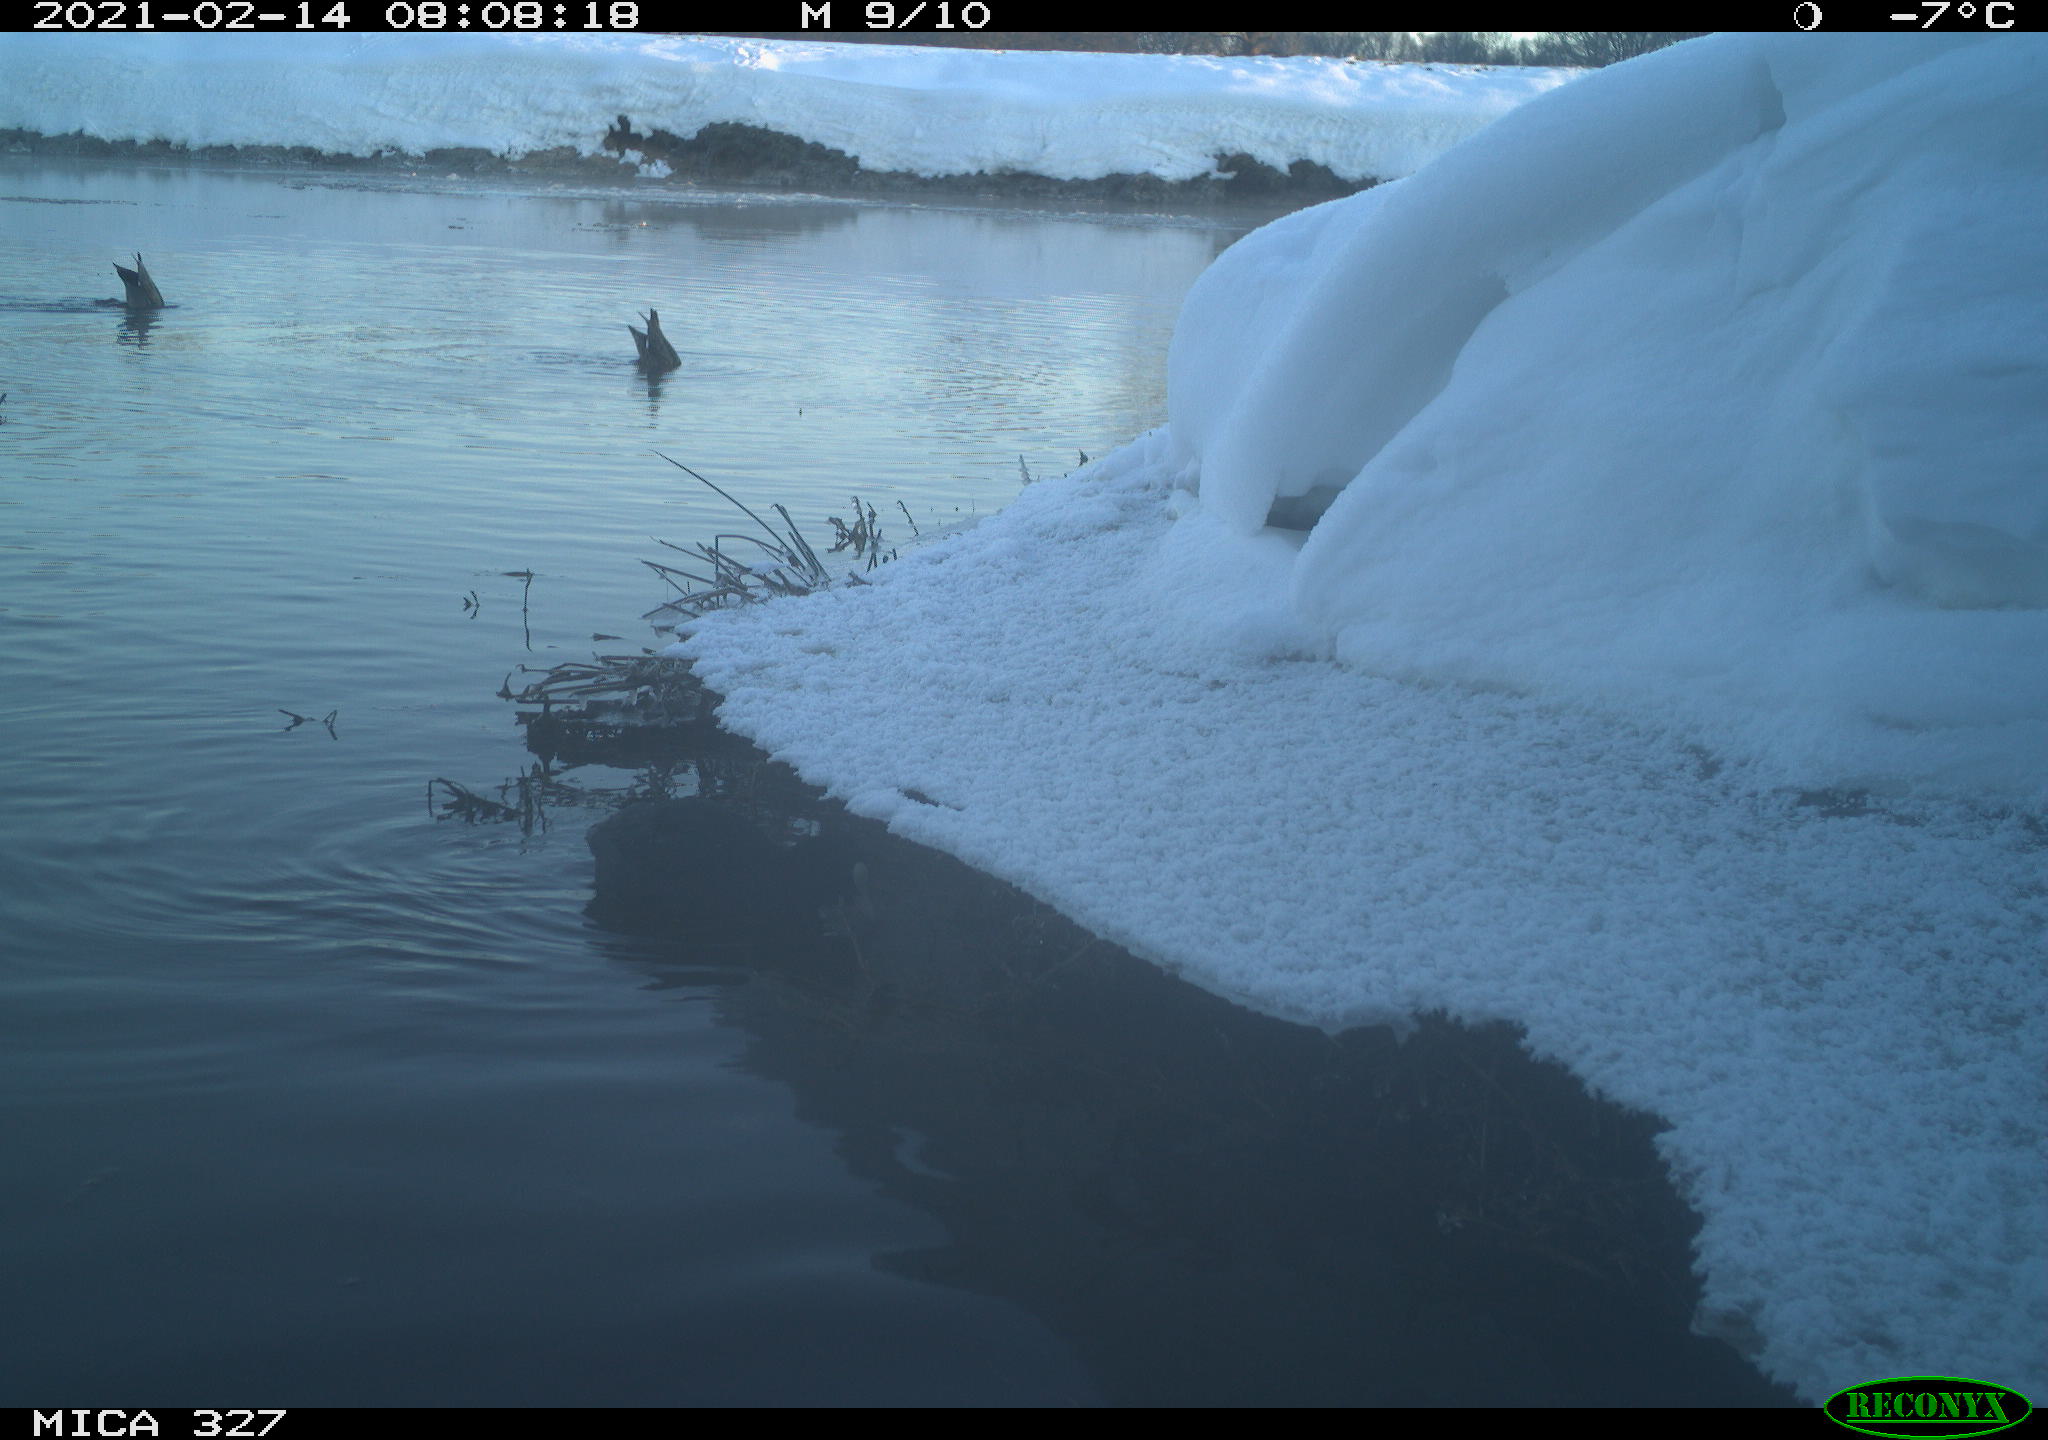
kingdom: Animalia
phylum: Chordata
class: Aves
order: Gruiformes
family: Rallidae
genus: Fulica
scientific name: Fulica atra
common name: Eurasian coot
